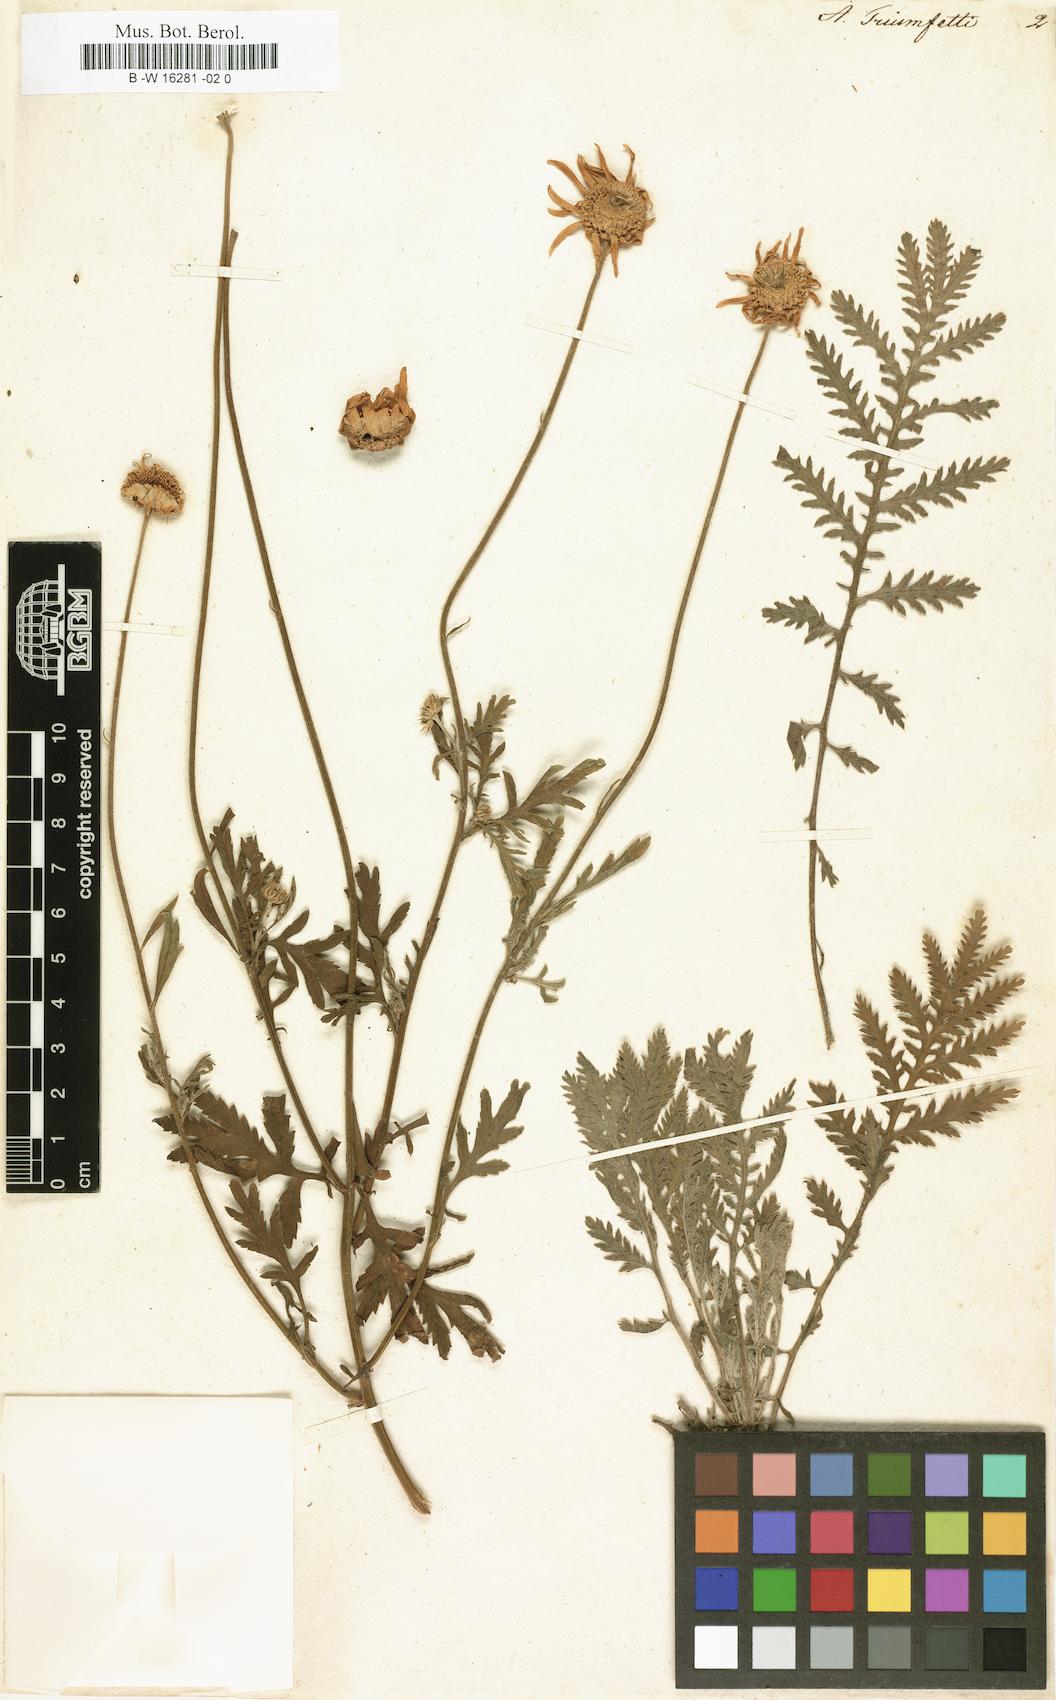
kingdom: Plantae
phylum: Tracheophyta
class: Magnoliopsida
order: Asterales
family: Asteraceae
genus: Cota
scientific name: Cota triumfetti
